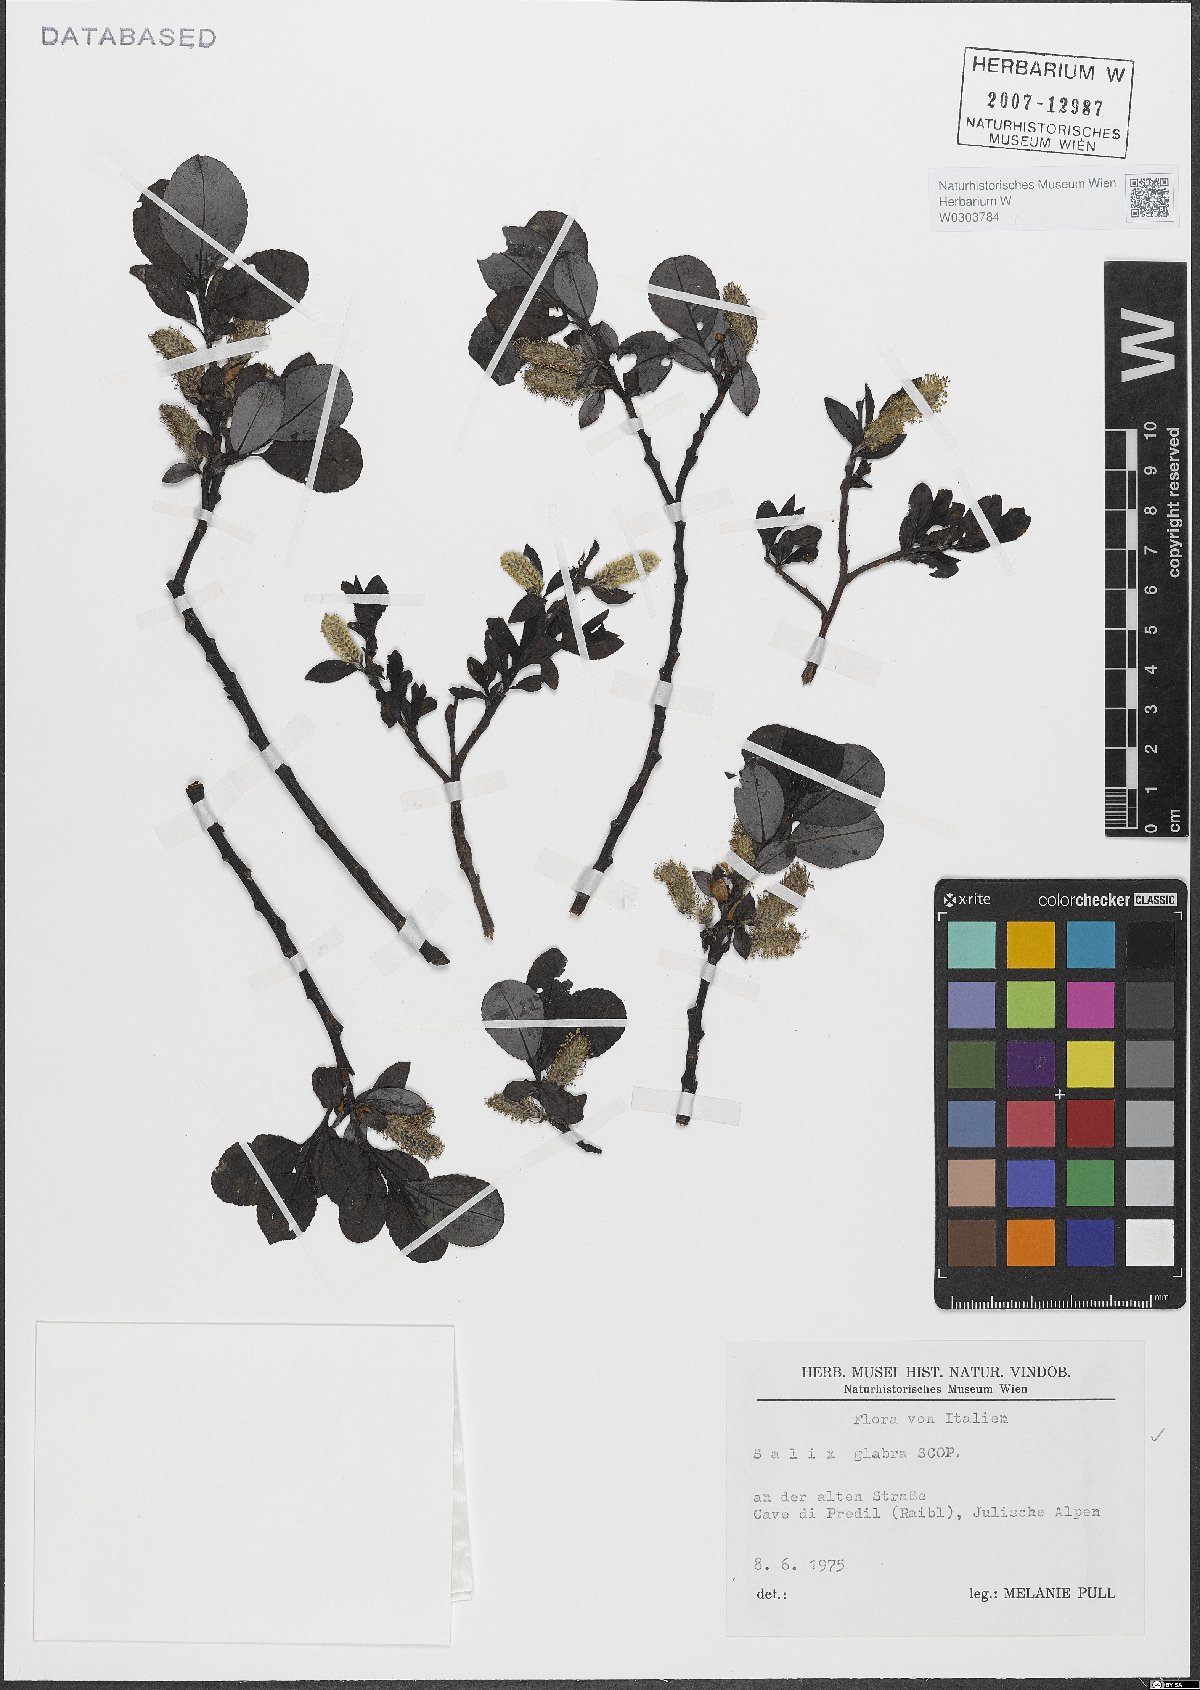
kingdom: Plantae
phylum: Tracheophyta
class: Magnoliopsida
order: Malpighiales
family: Salicaceae
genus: Salix
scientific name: Salix glabra
